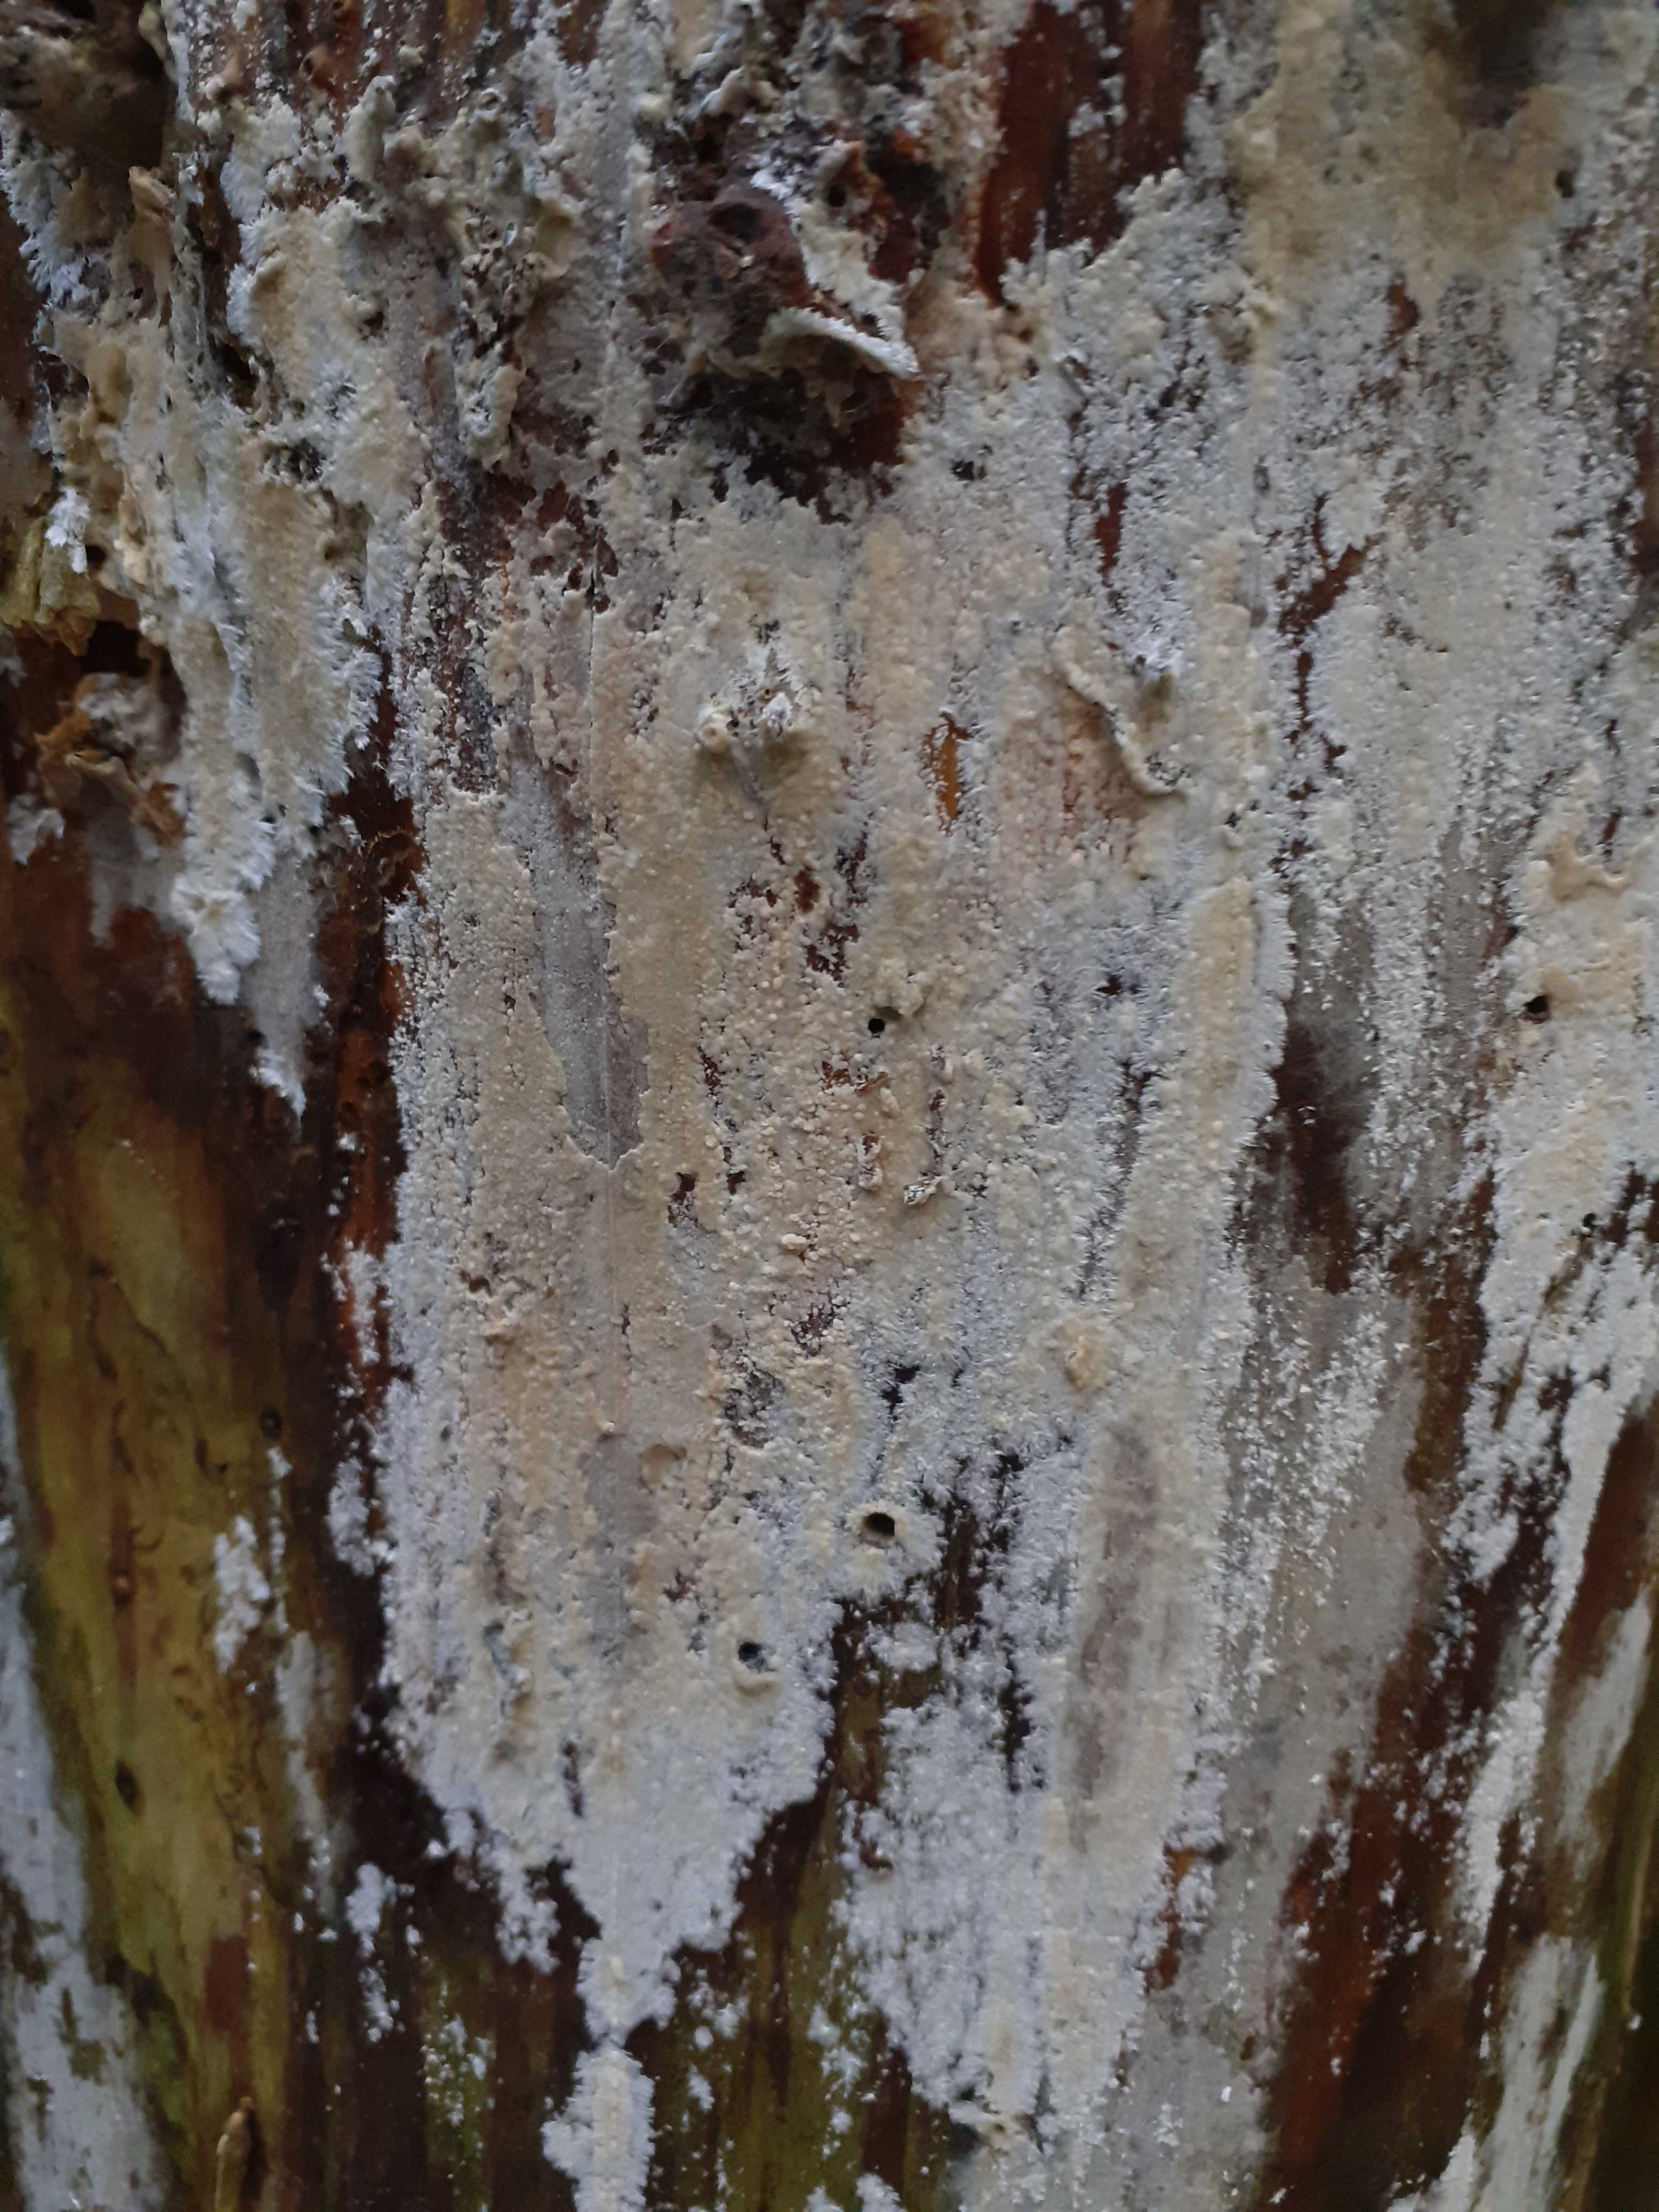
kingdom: Fungi
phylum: Basidiomycota
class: Agaricomycetes
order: Russulales
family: Peniophoraceae
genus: Gloiothele
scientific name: Gloiothele citrina
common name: citronskorpe
